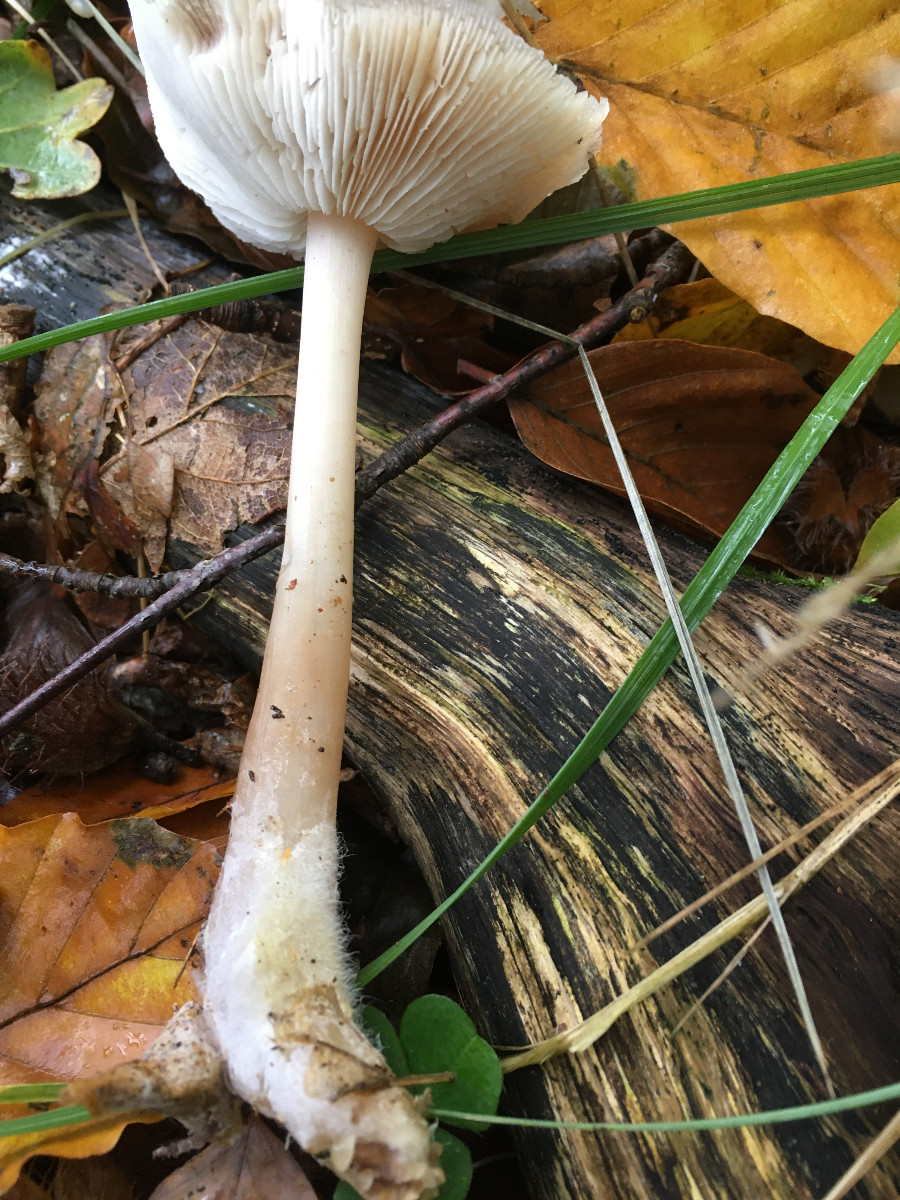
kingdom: Fungi
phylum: Basidiomycota
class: Agaricomycetes
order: Agaricales
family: Omphalotaceae
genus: Rhodocollybia
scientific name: Rhodocollybia asema
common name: horngrå fladhat
